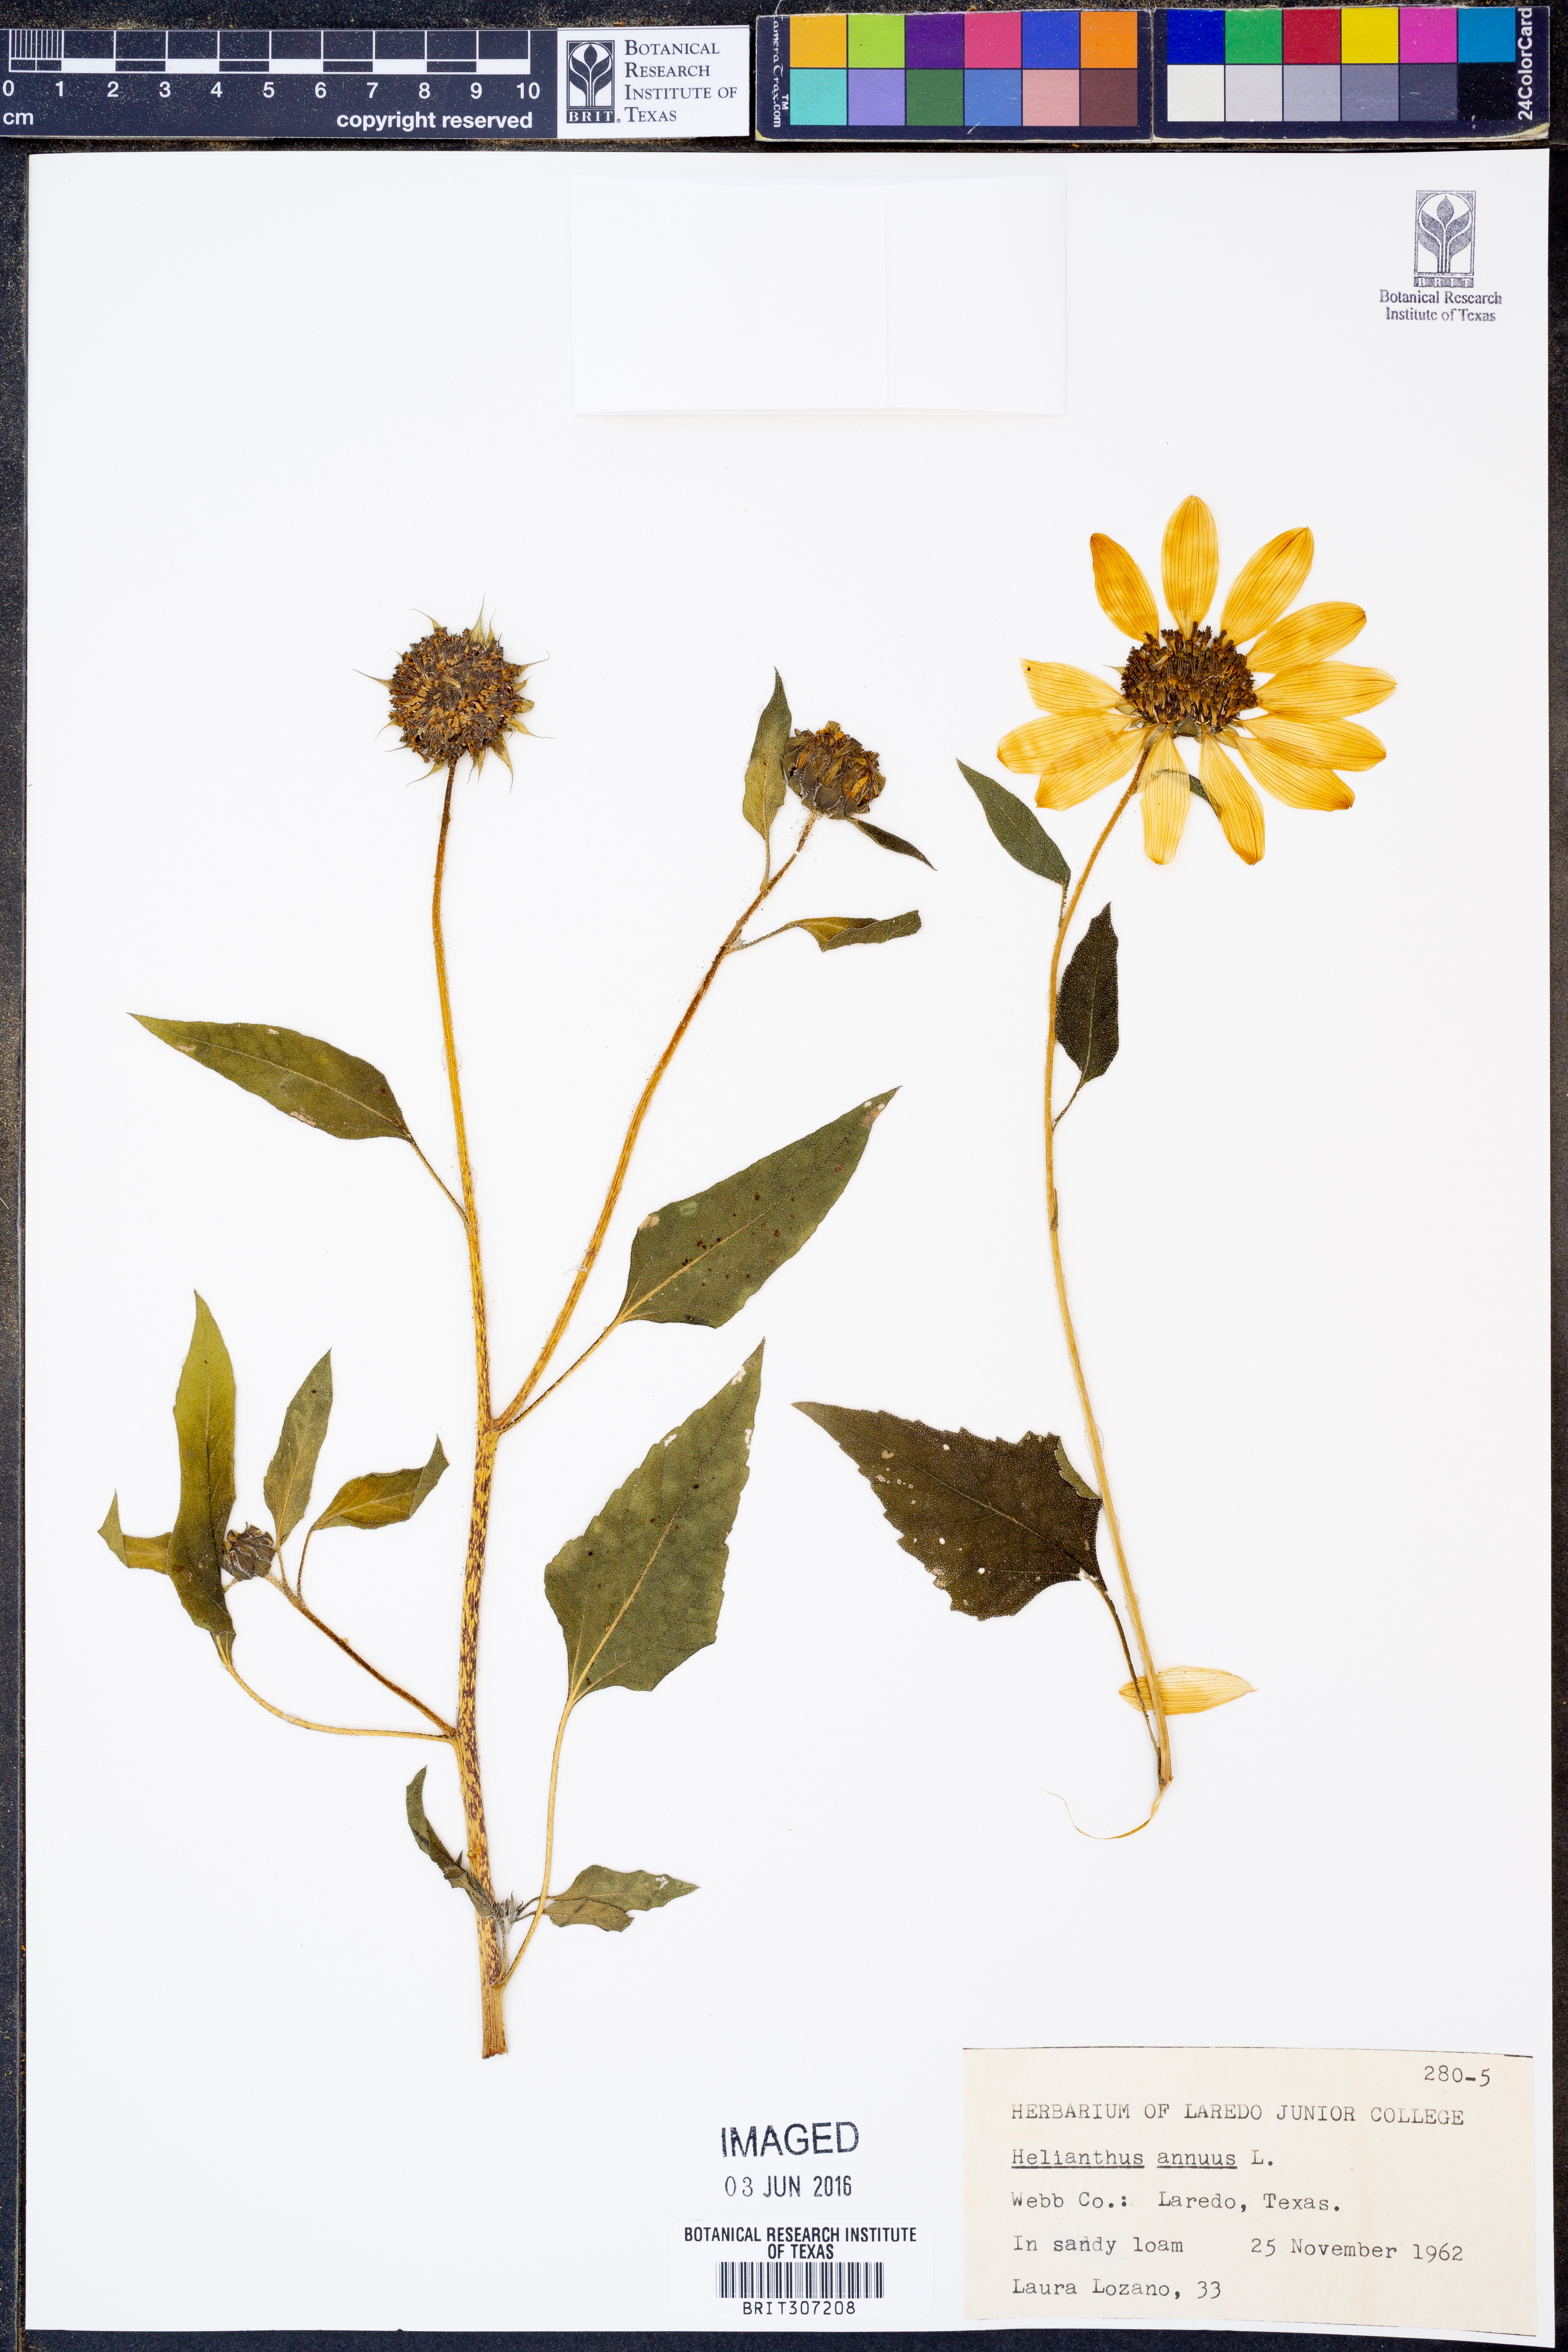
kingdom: Plantae
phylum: Tracheophyta
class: Magnoliopsida
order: Asterales
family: Asteraceae
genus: Helianthus
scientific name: Helianthus annuus
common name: Sunflower
